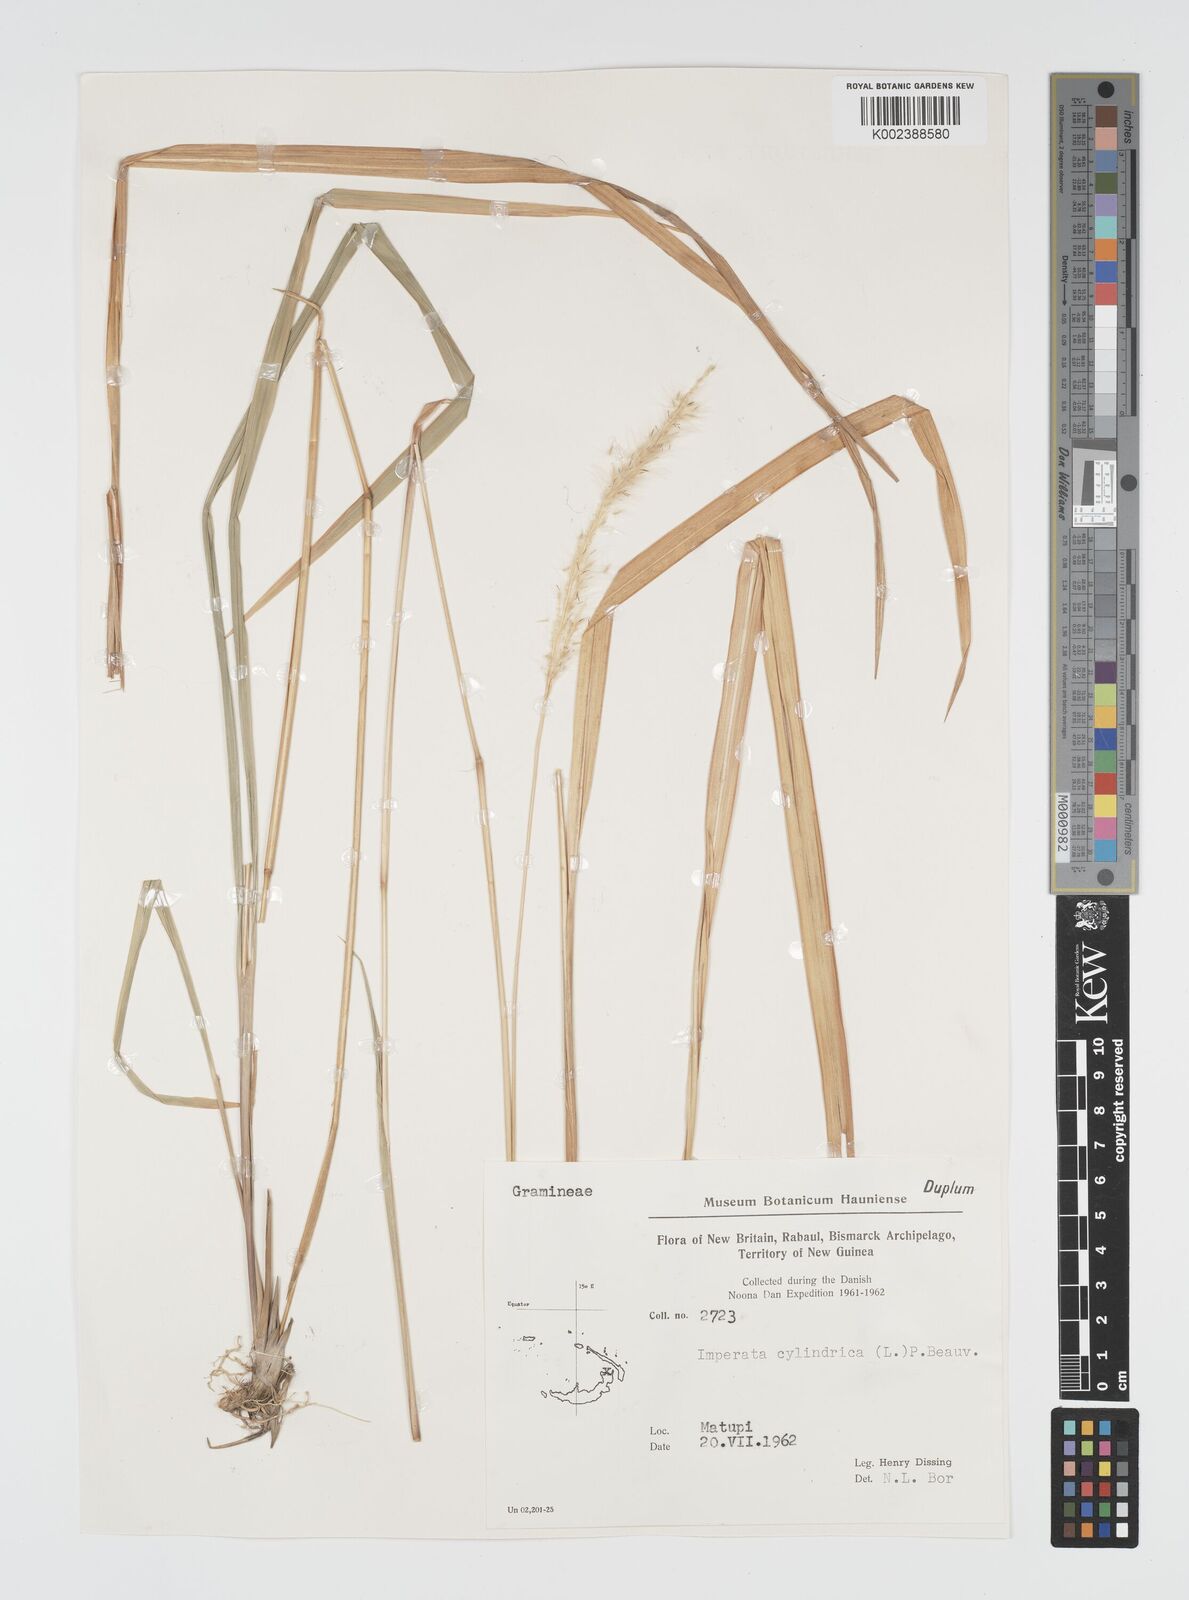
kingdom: Plantae
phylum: Tracheophyta
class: Liliopsida
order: Poales
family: Poaceae
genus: Imperata
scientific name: Imperata cylindrica
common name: Cogongrass
